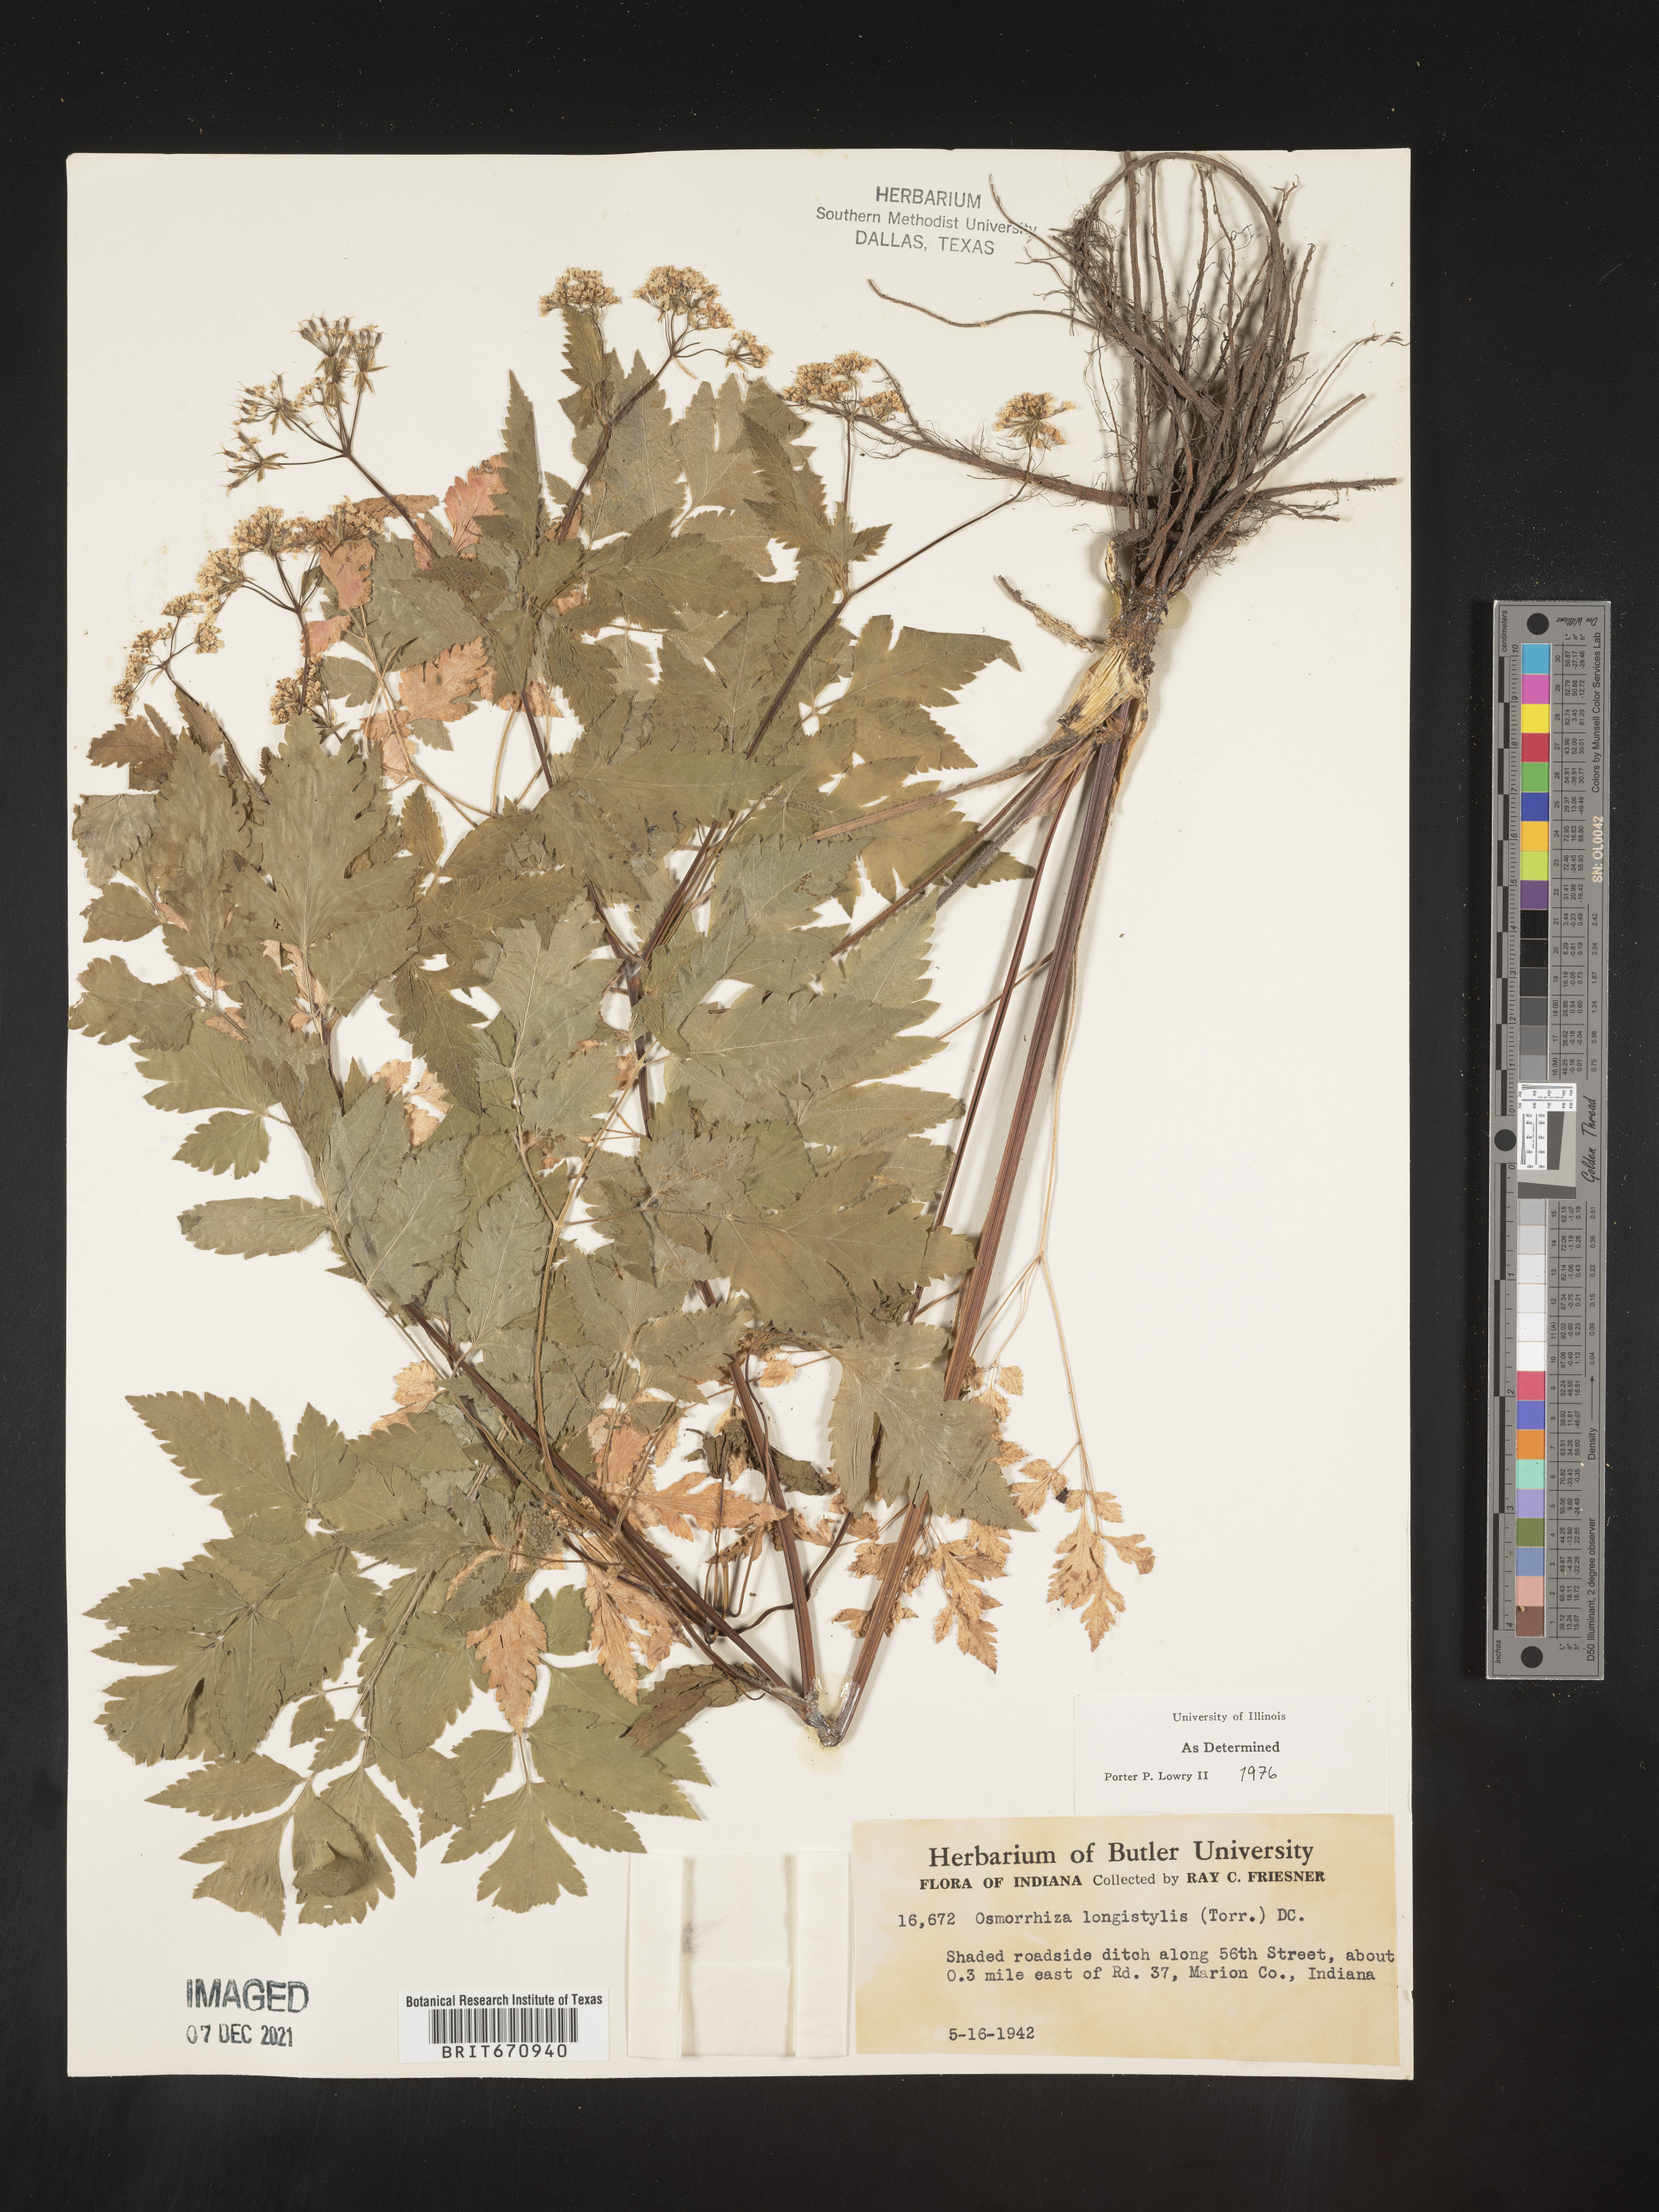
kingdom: Plantae
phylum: Tracheophyta
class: Magnoliopsida
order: Apiales
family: Apiaceae
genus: Osmorhiza
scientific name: Osmorhiza longistylis
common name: Smooth sweet cicely
